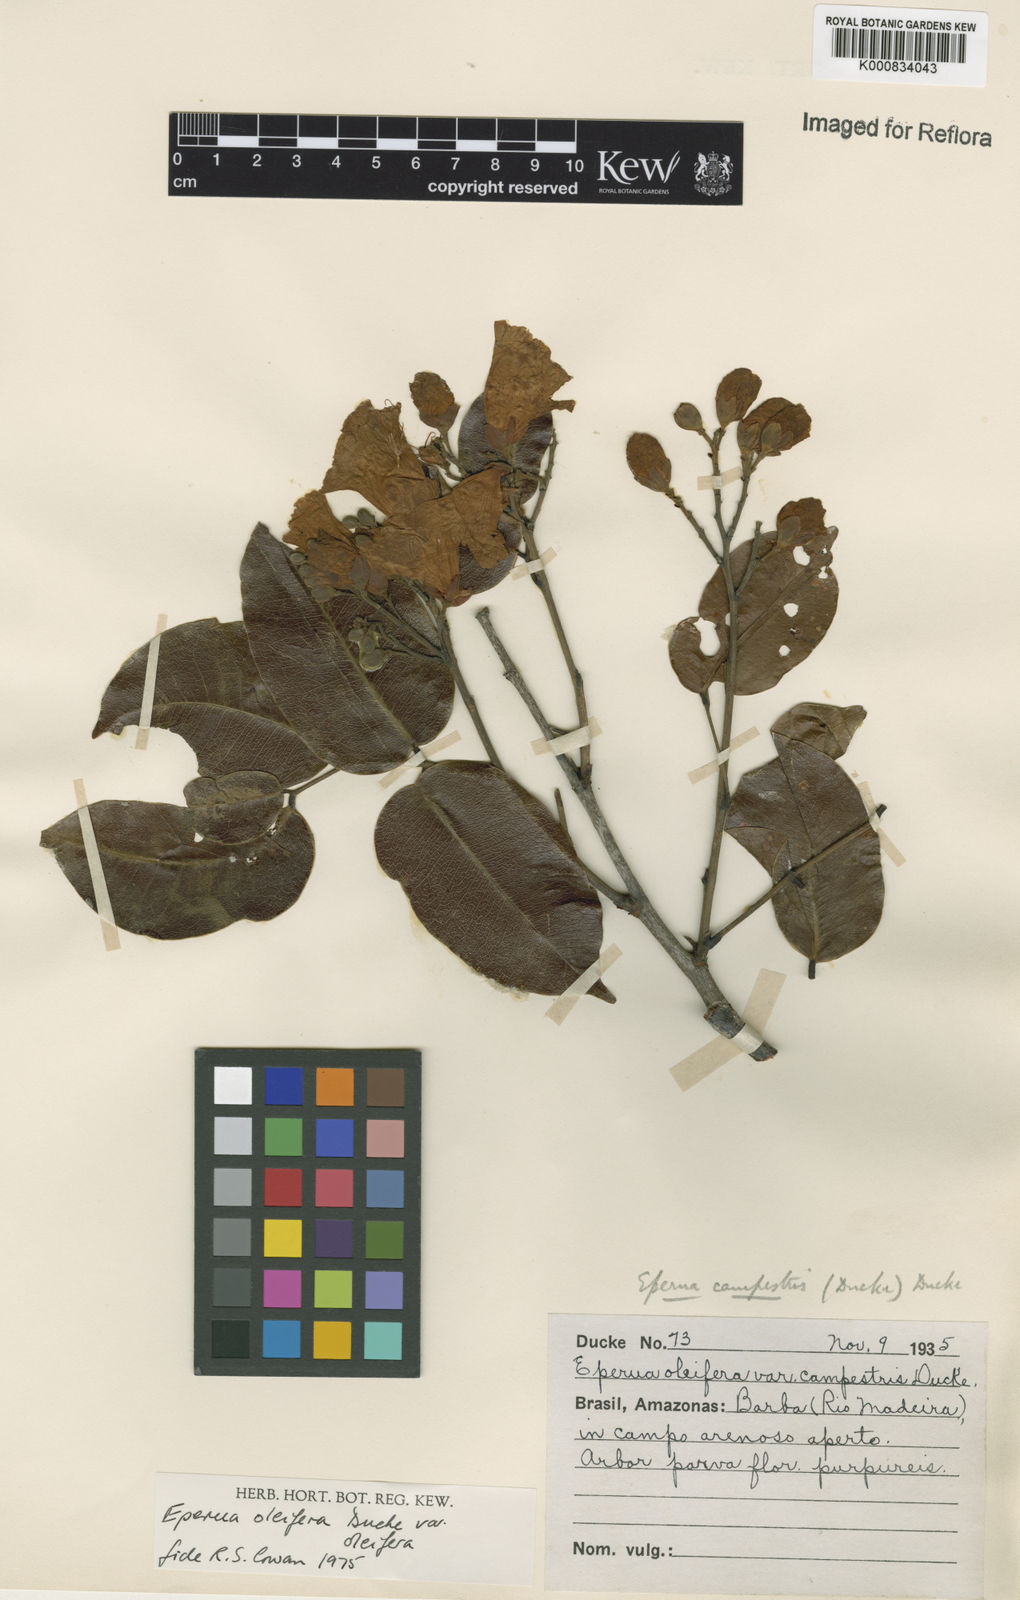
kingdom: Plantae
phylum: Tracheophyta
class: Magnoliopsida
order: Fabales
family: Fabaceae
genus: Eperua
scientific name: Eperua oleifera
